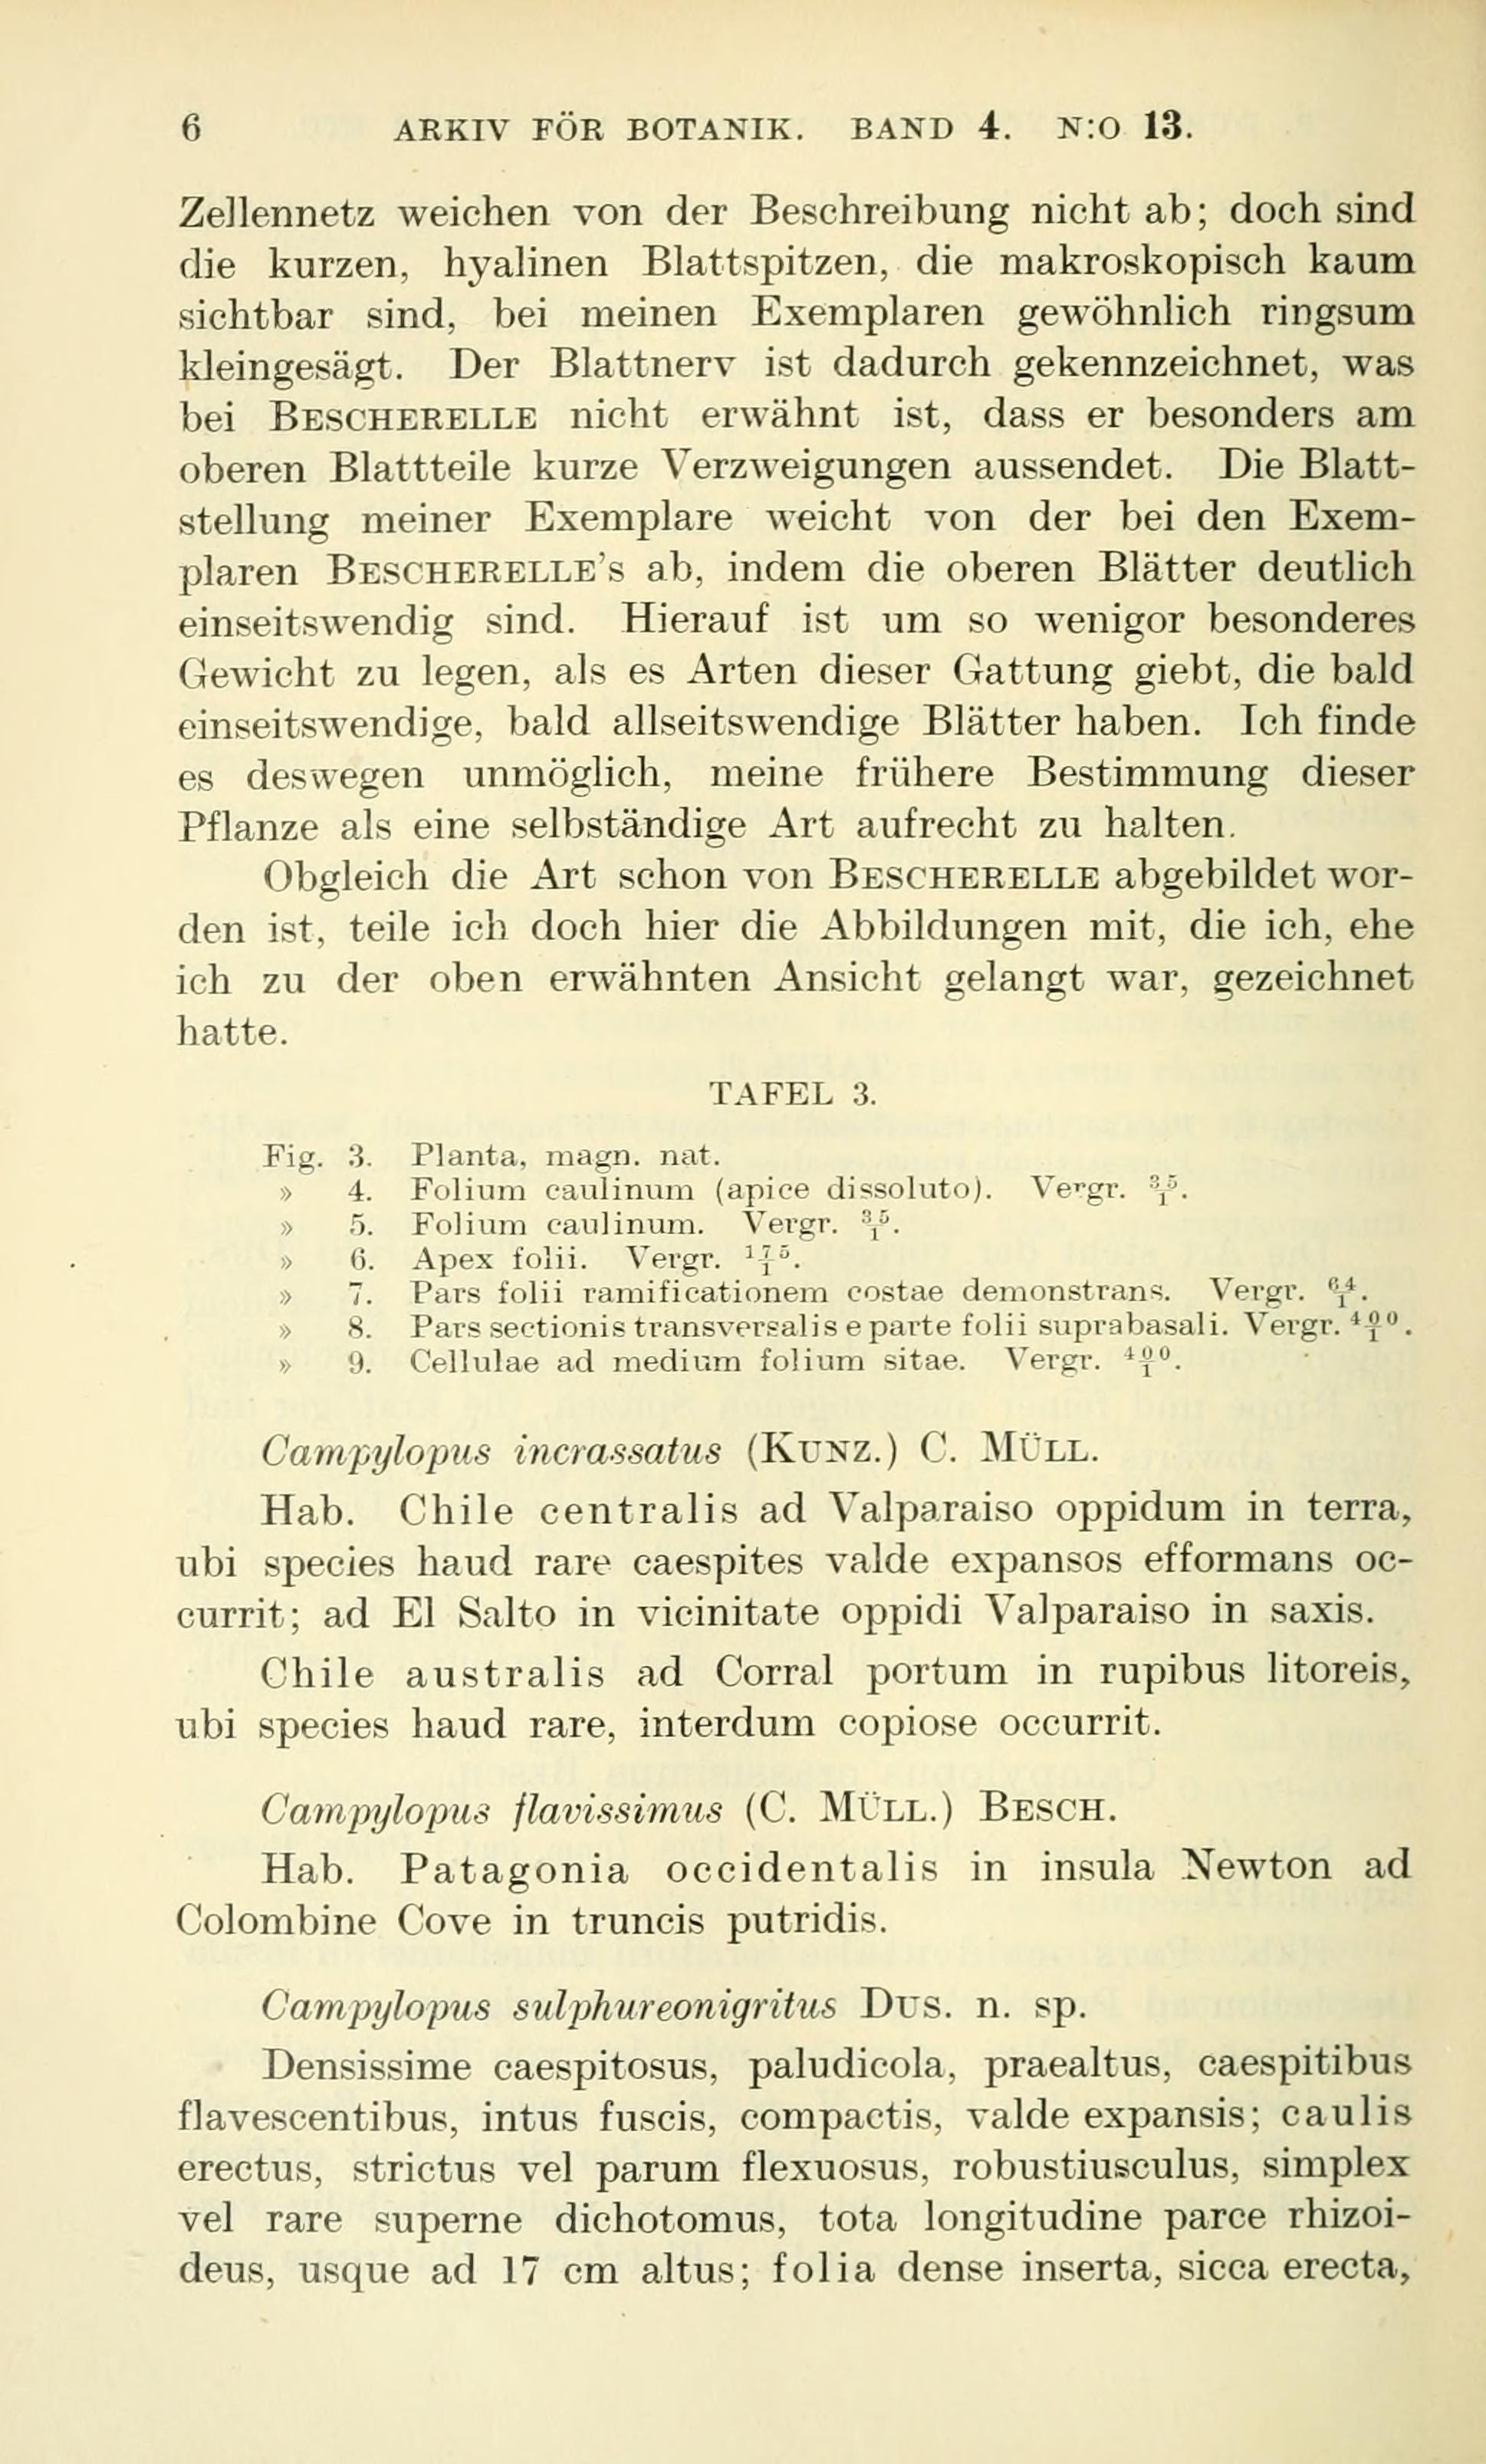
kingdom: Plantae
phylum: Bryophyta
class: Bryopsida
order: Dicranales
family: Leucobryaceae
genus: Campylopus
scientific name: Campylopus acuminatus
